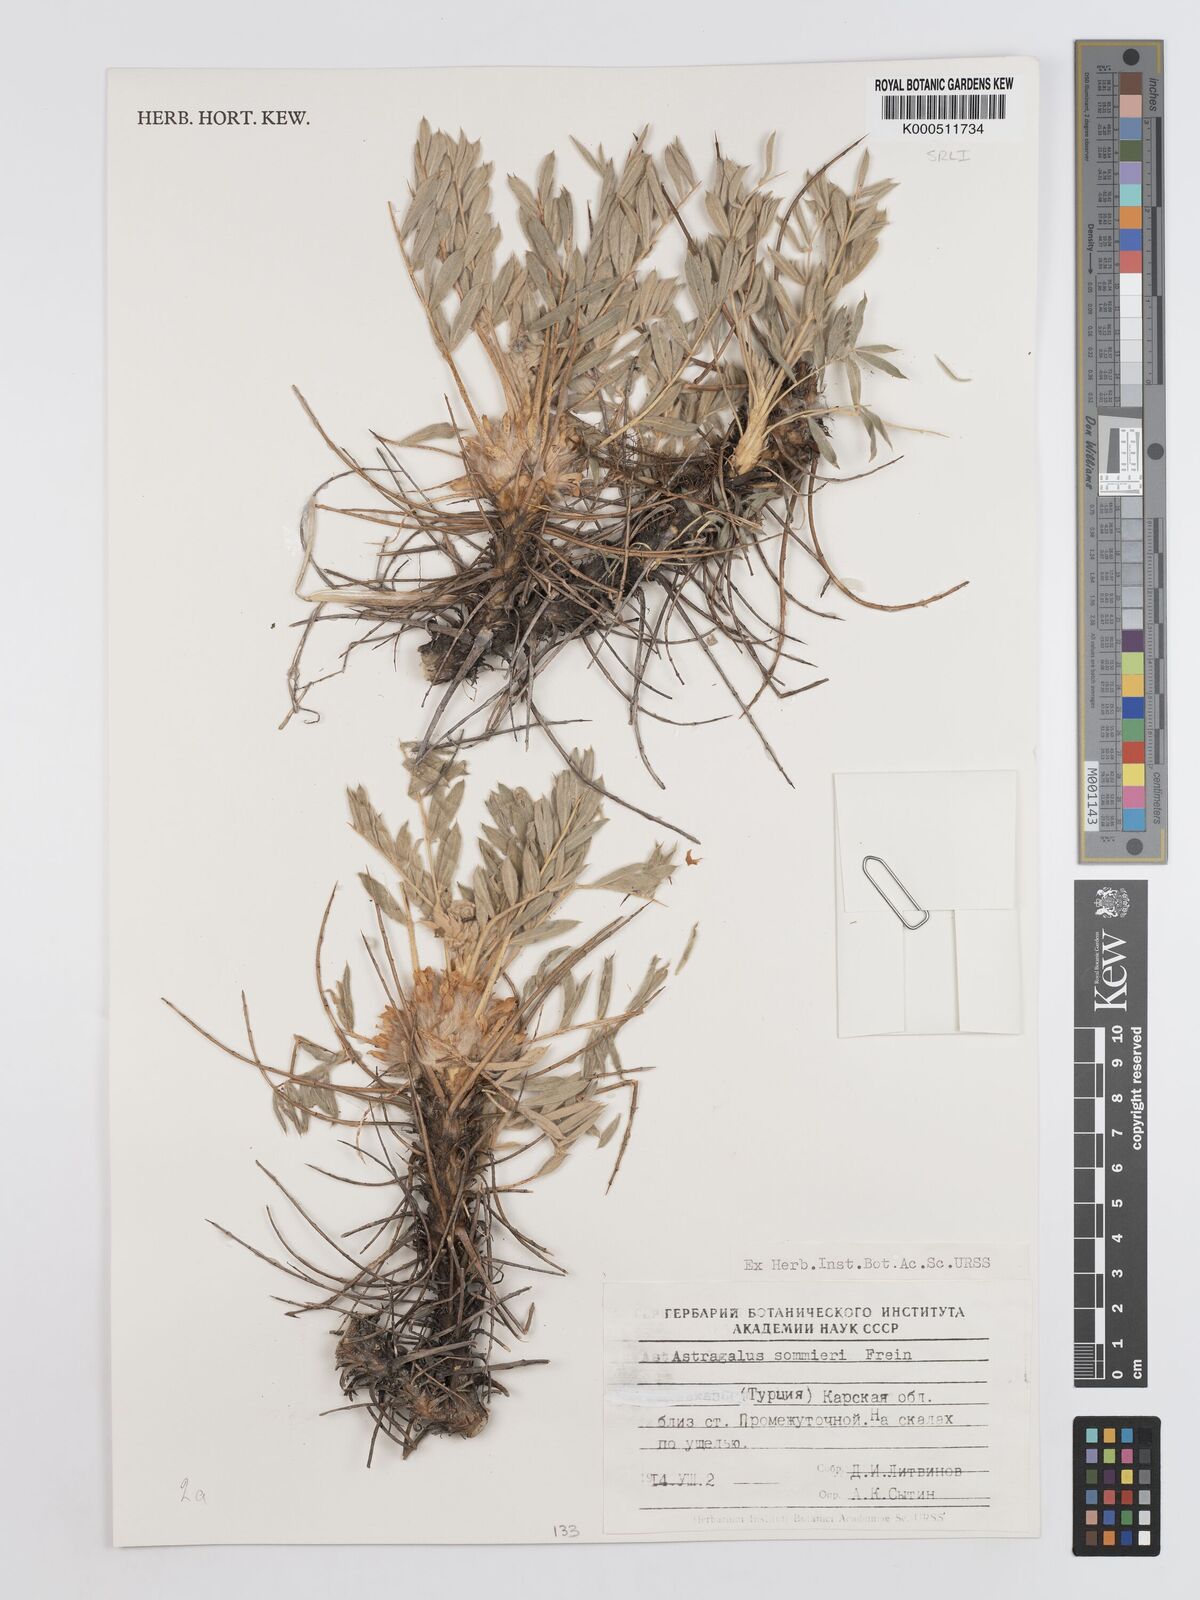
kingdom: Plantae
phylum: Tracheophyta
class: Magnoliopsida
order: Fabales
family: Fabaceae
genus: Astragalus
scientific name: Astragalus cephalotes
